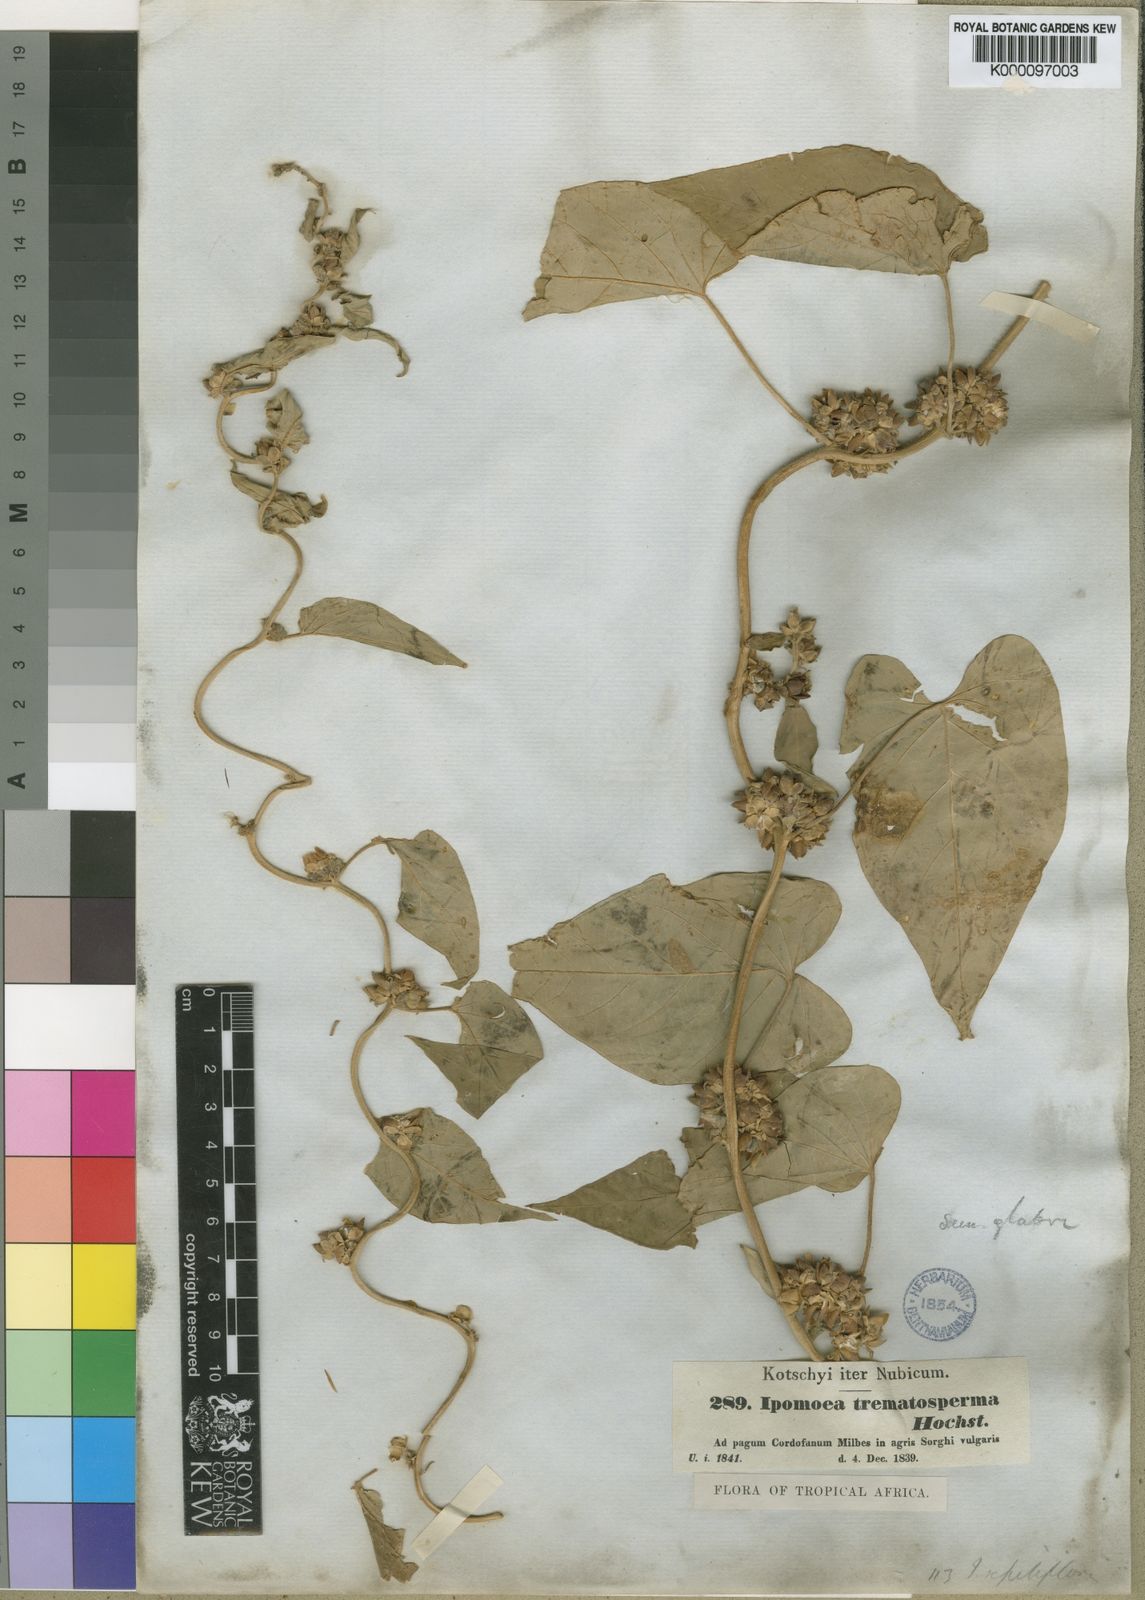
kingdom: Plantae
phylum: Tracheophyta
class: Magnoliopsida
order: Solanales
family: Convolvulaceae
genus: Ipomoea
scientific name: Ipomoea eriocarpa
